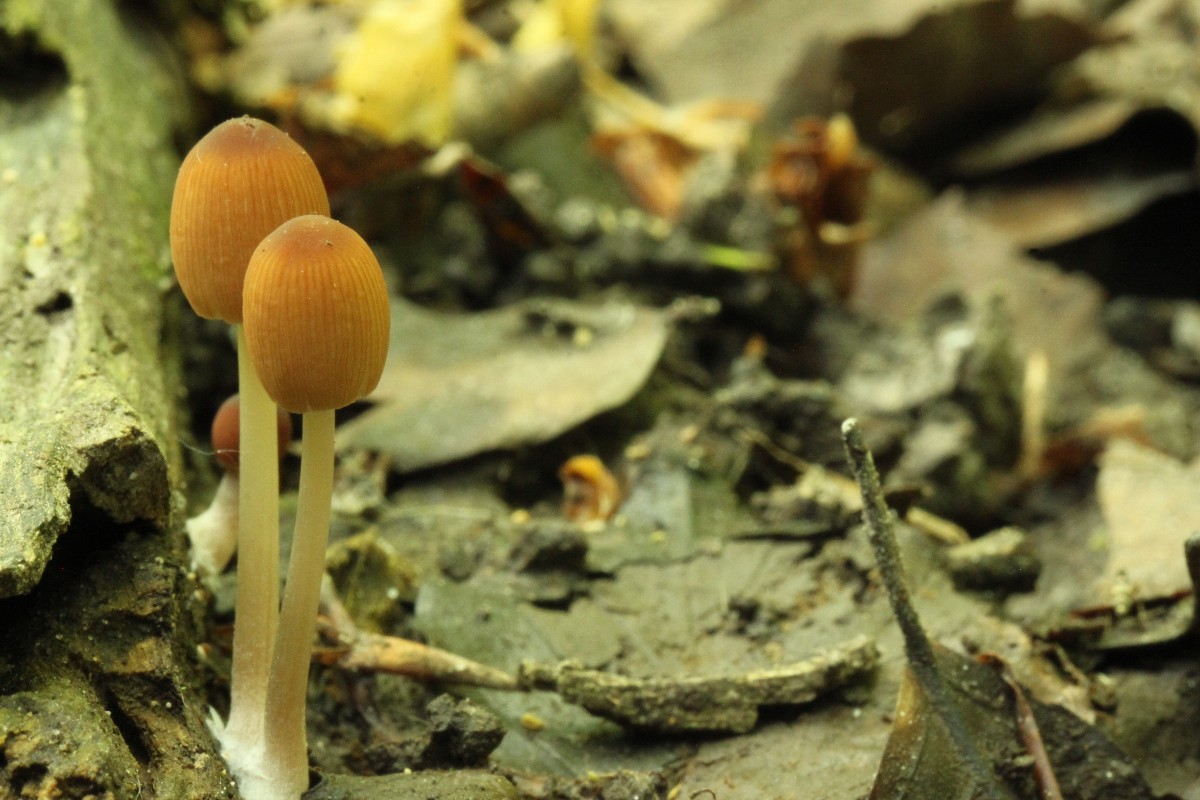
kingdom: Fungi
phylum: Basidiomycota
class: Agaricomycetes
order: Agaricales
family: Psathyrellaceae
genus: Parasola
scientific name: Parasola
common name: hjulhat
